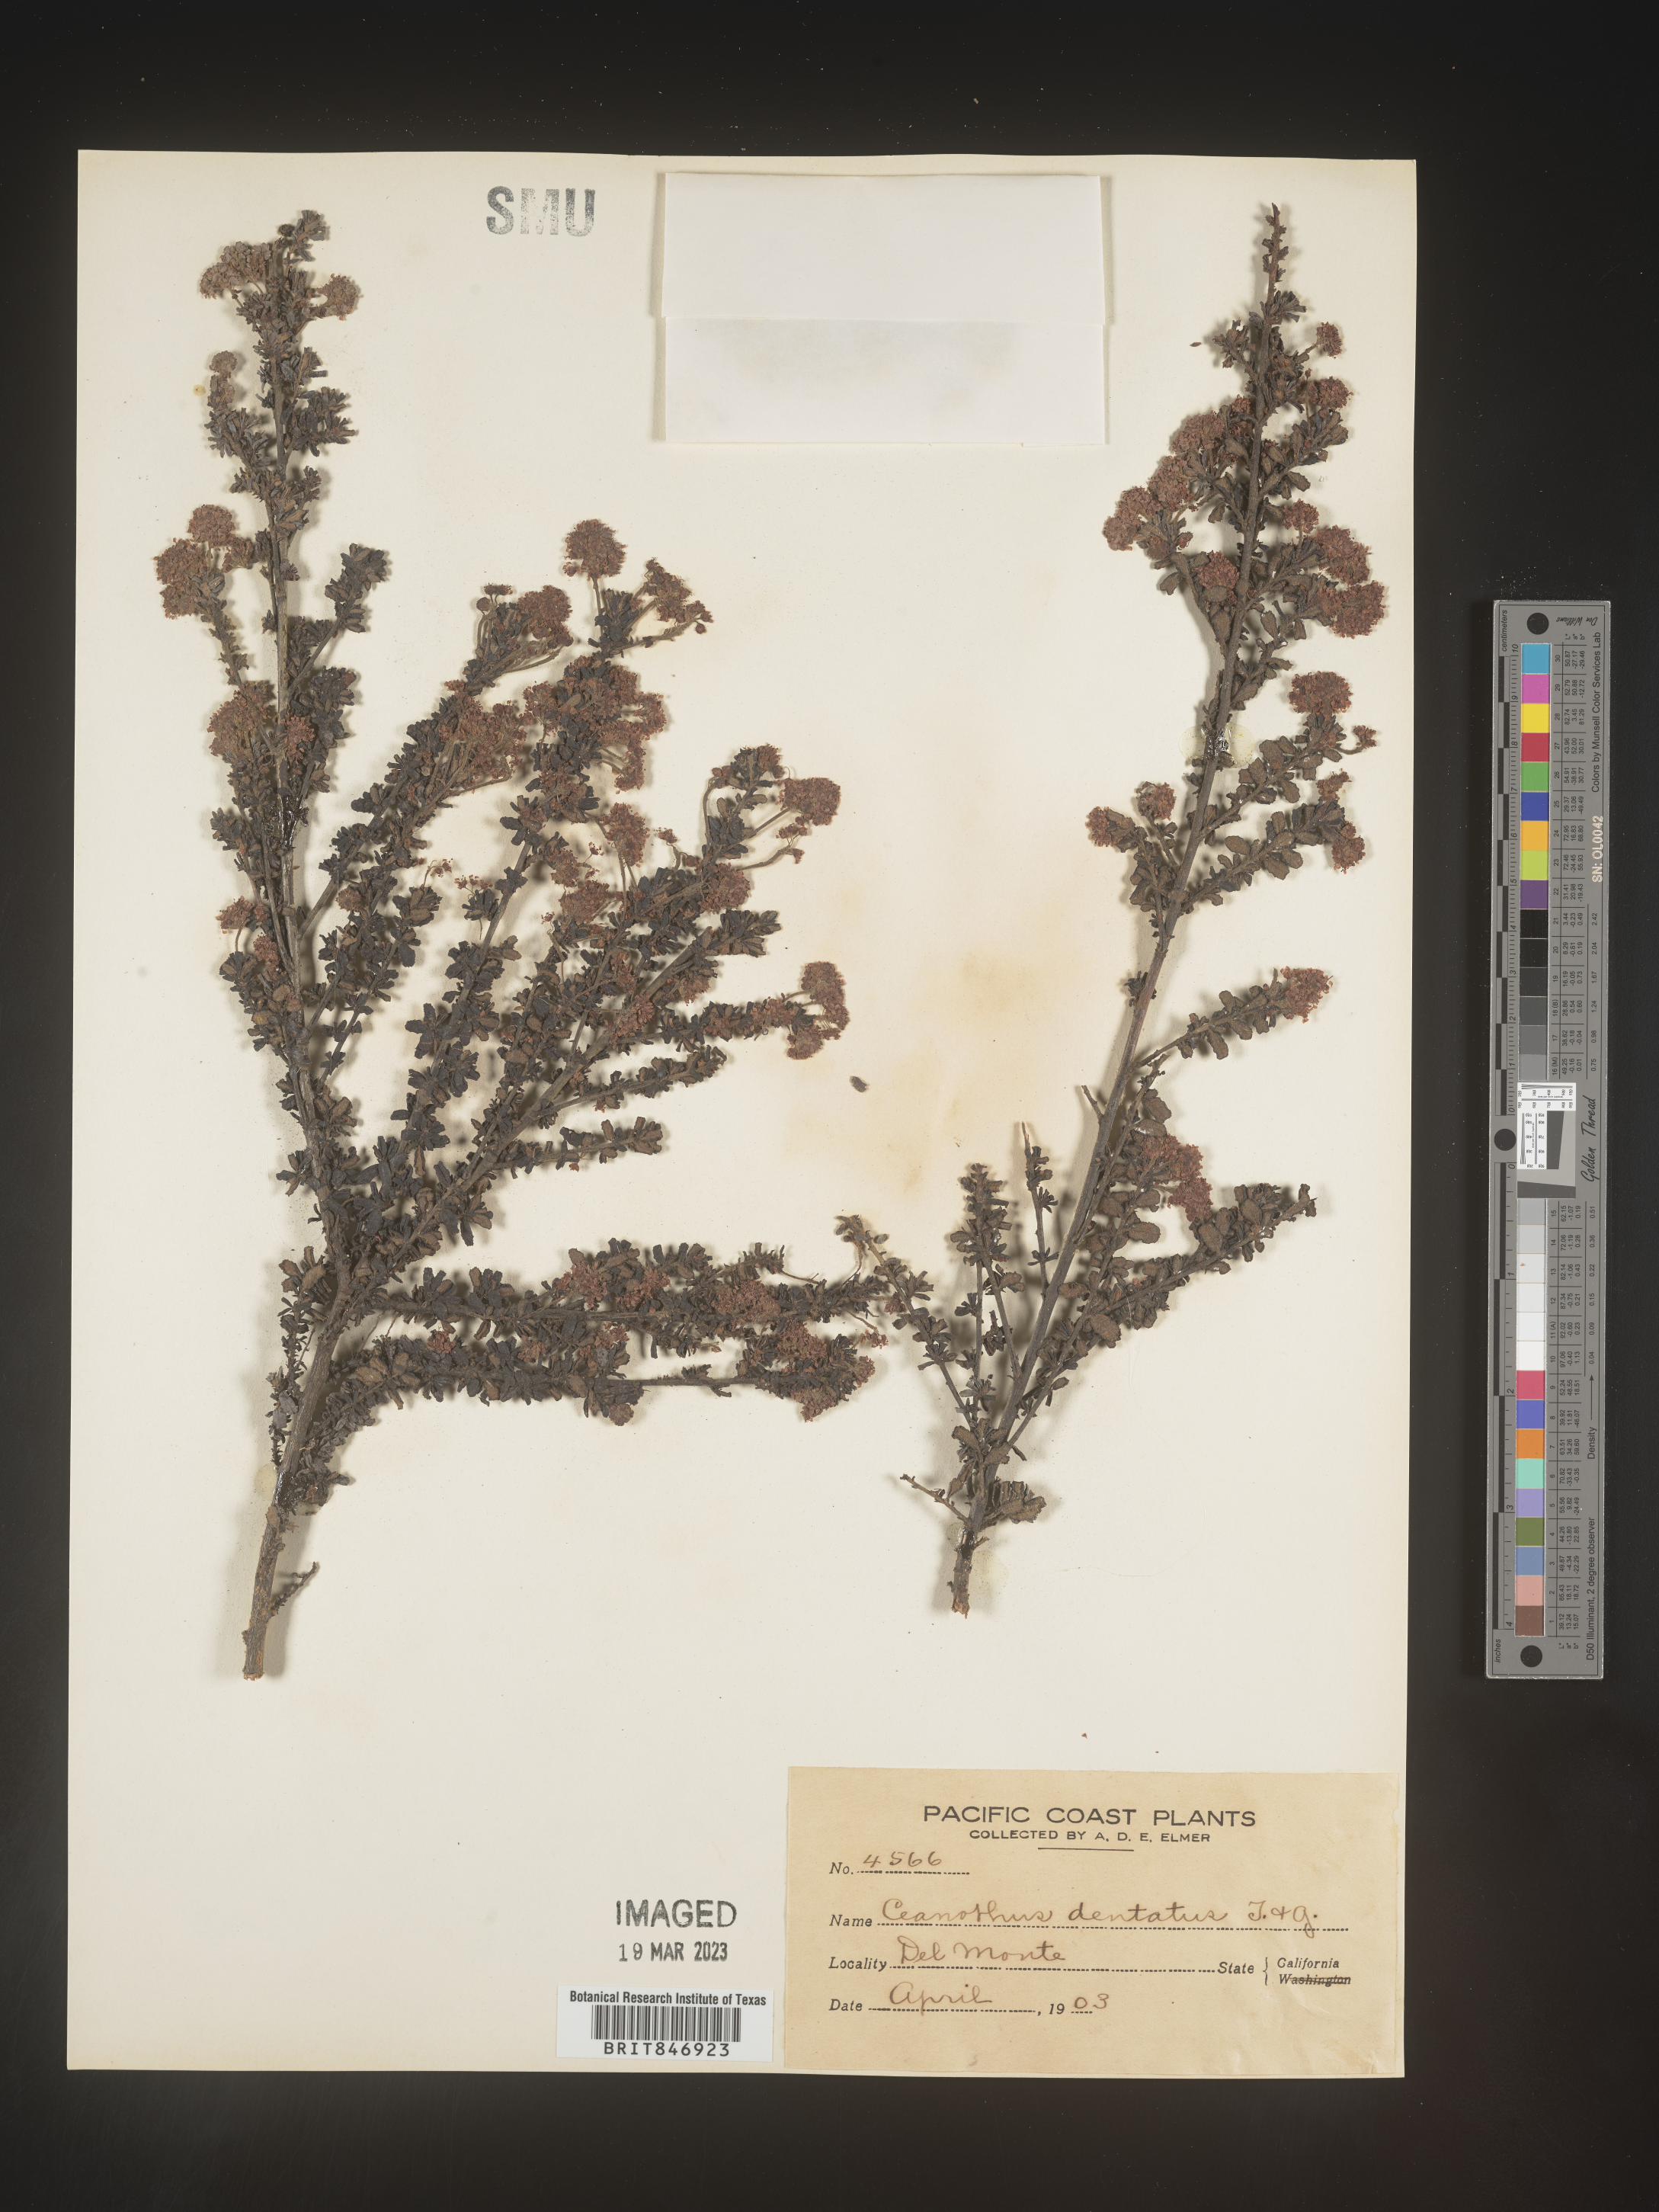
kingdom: Plantae
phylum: Tracheophyta
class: Magnoliopsida
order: Rosales
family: Rhamnaceae
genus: Ceanothus
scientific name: Ceanothus
